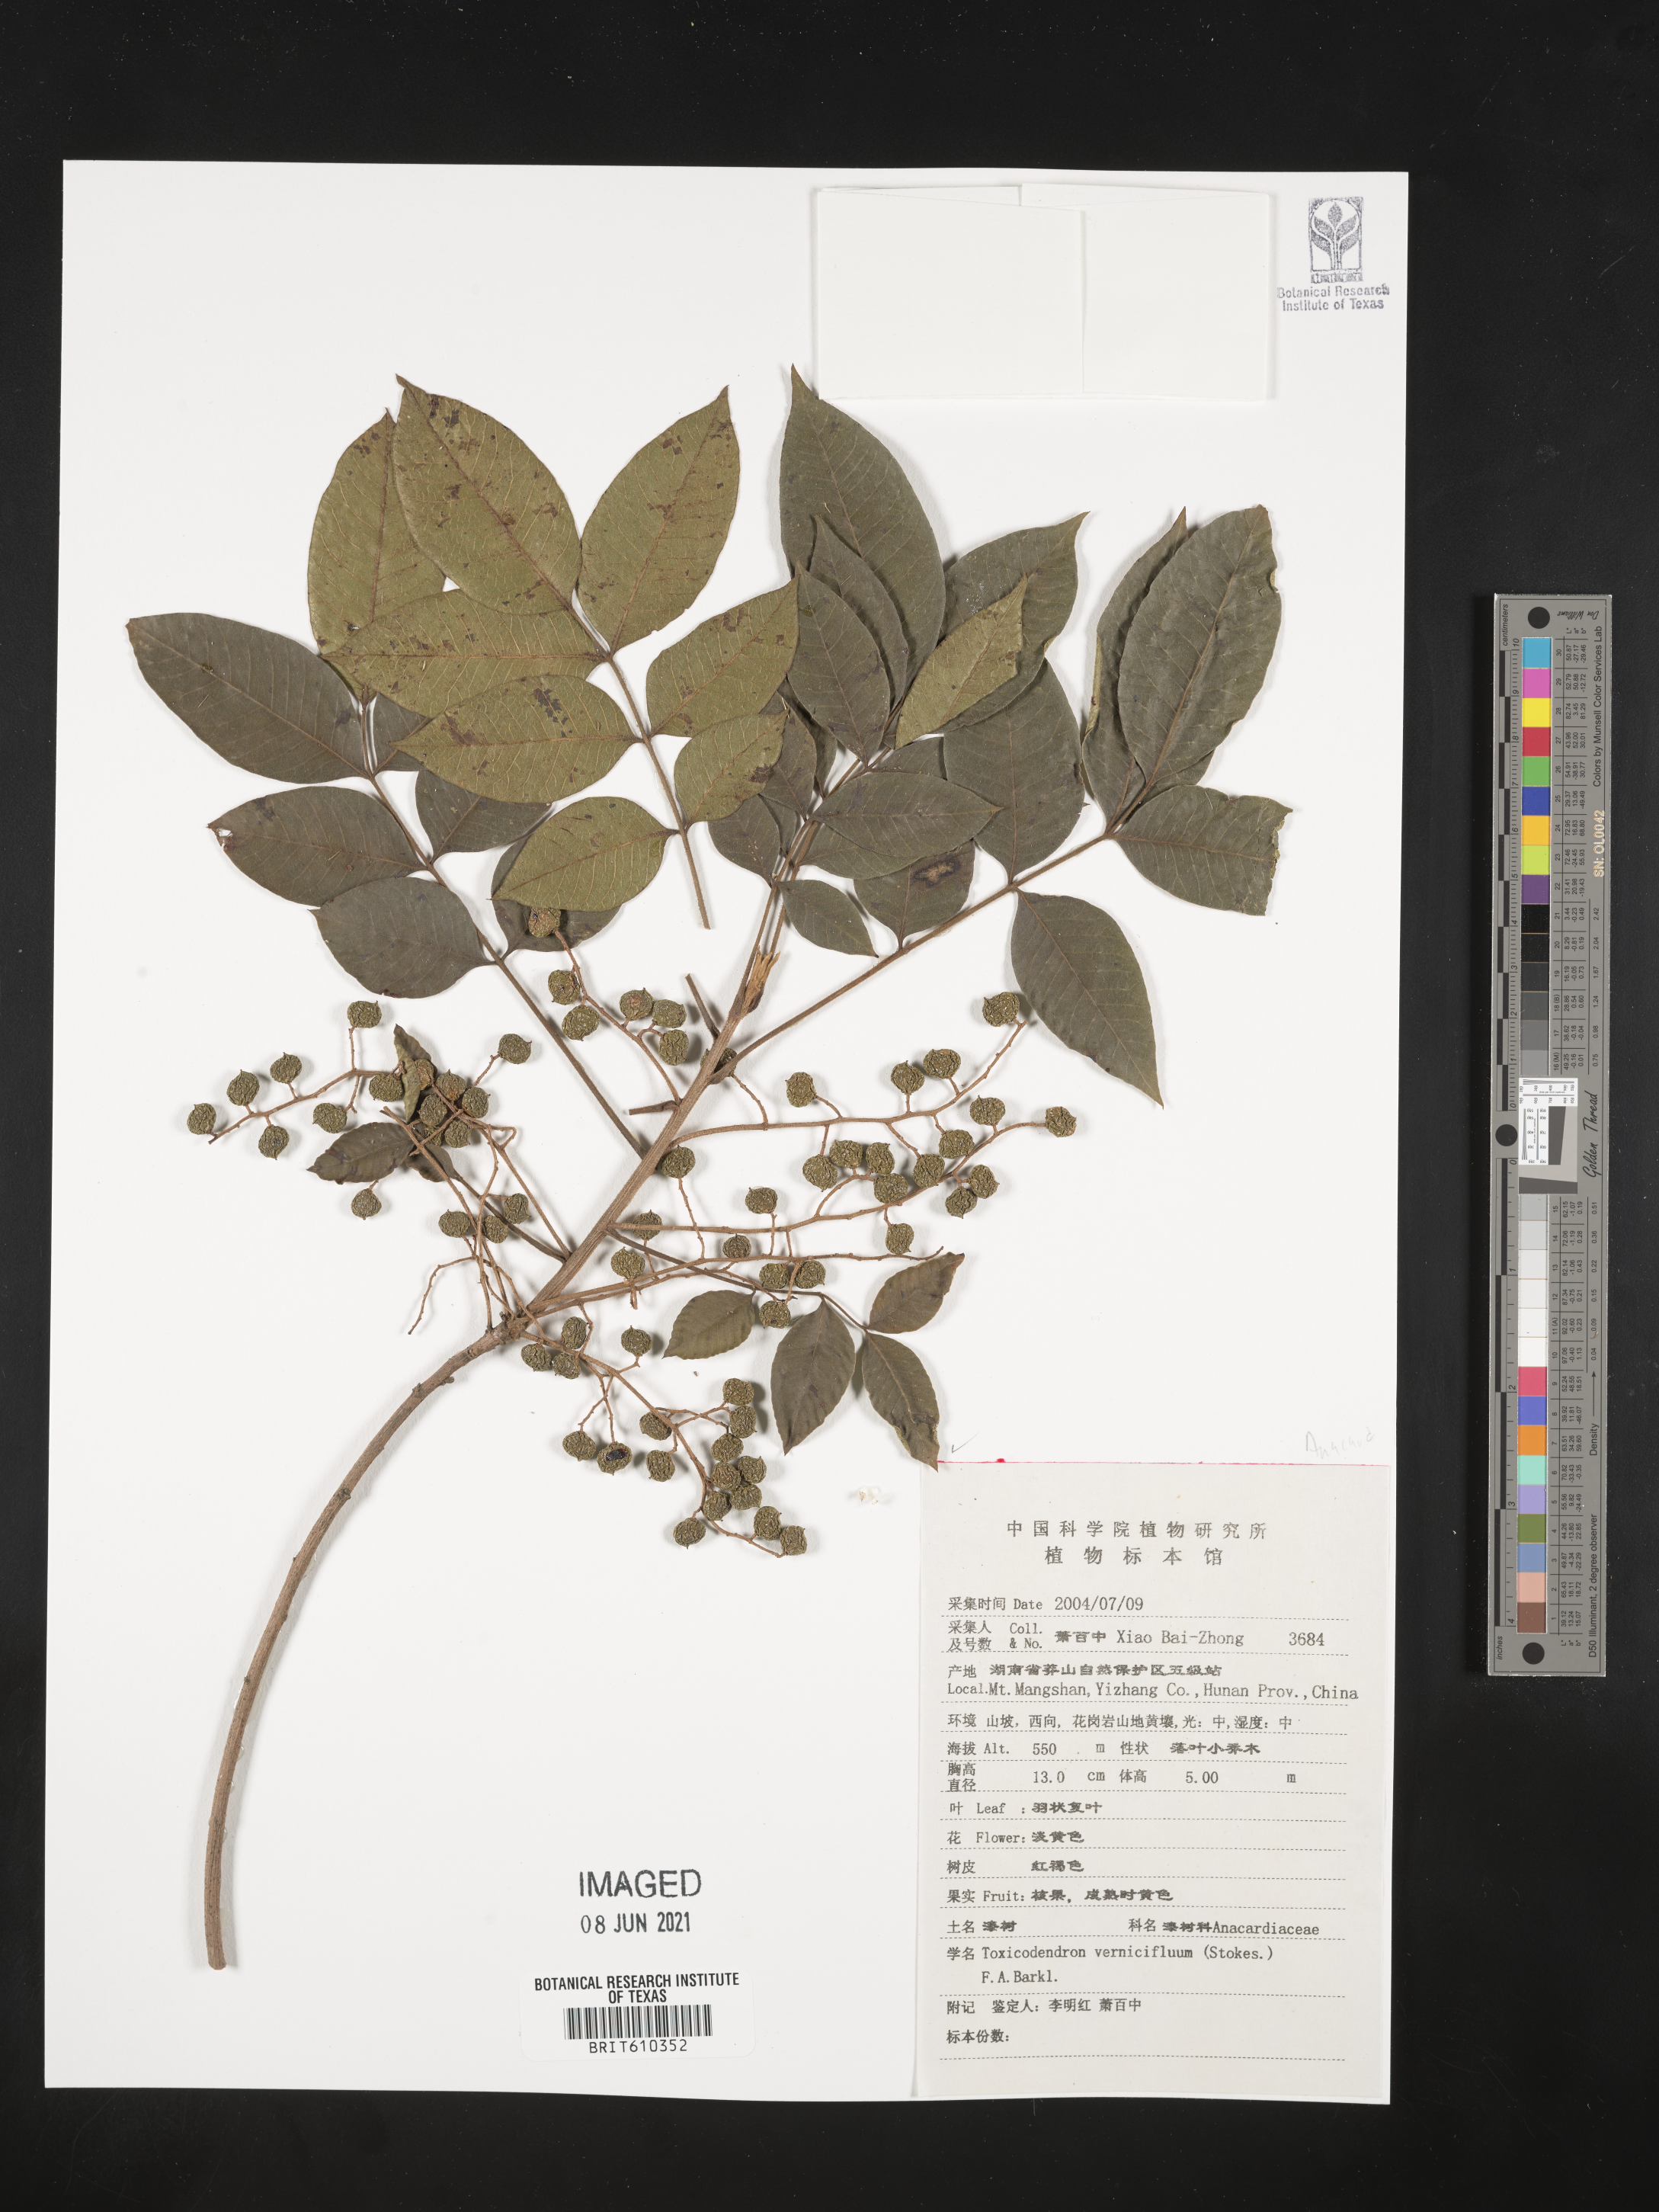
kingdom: Plantae
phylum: Tracheophyta
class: Magnoliopsida
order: Sapindales
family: Anacardiaceae
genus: Toxicodendron
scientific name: Toxicodendron vernicifluum
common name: Japanese lacquertree
